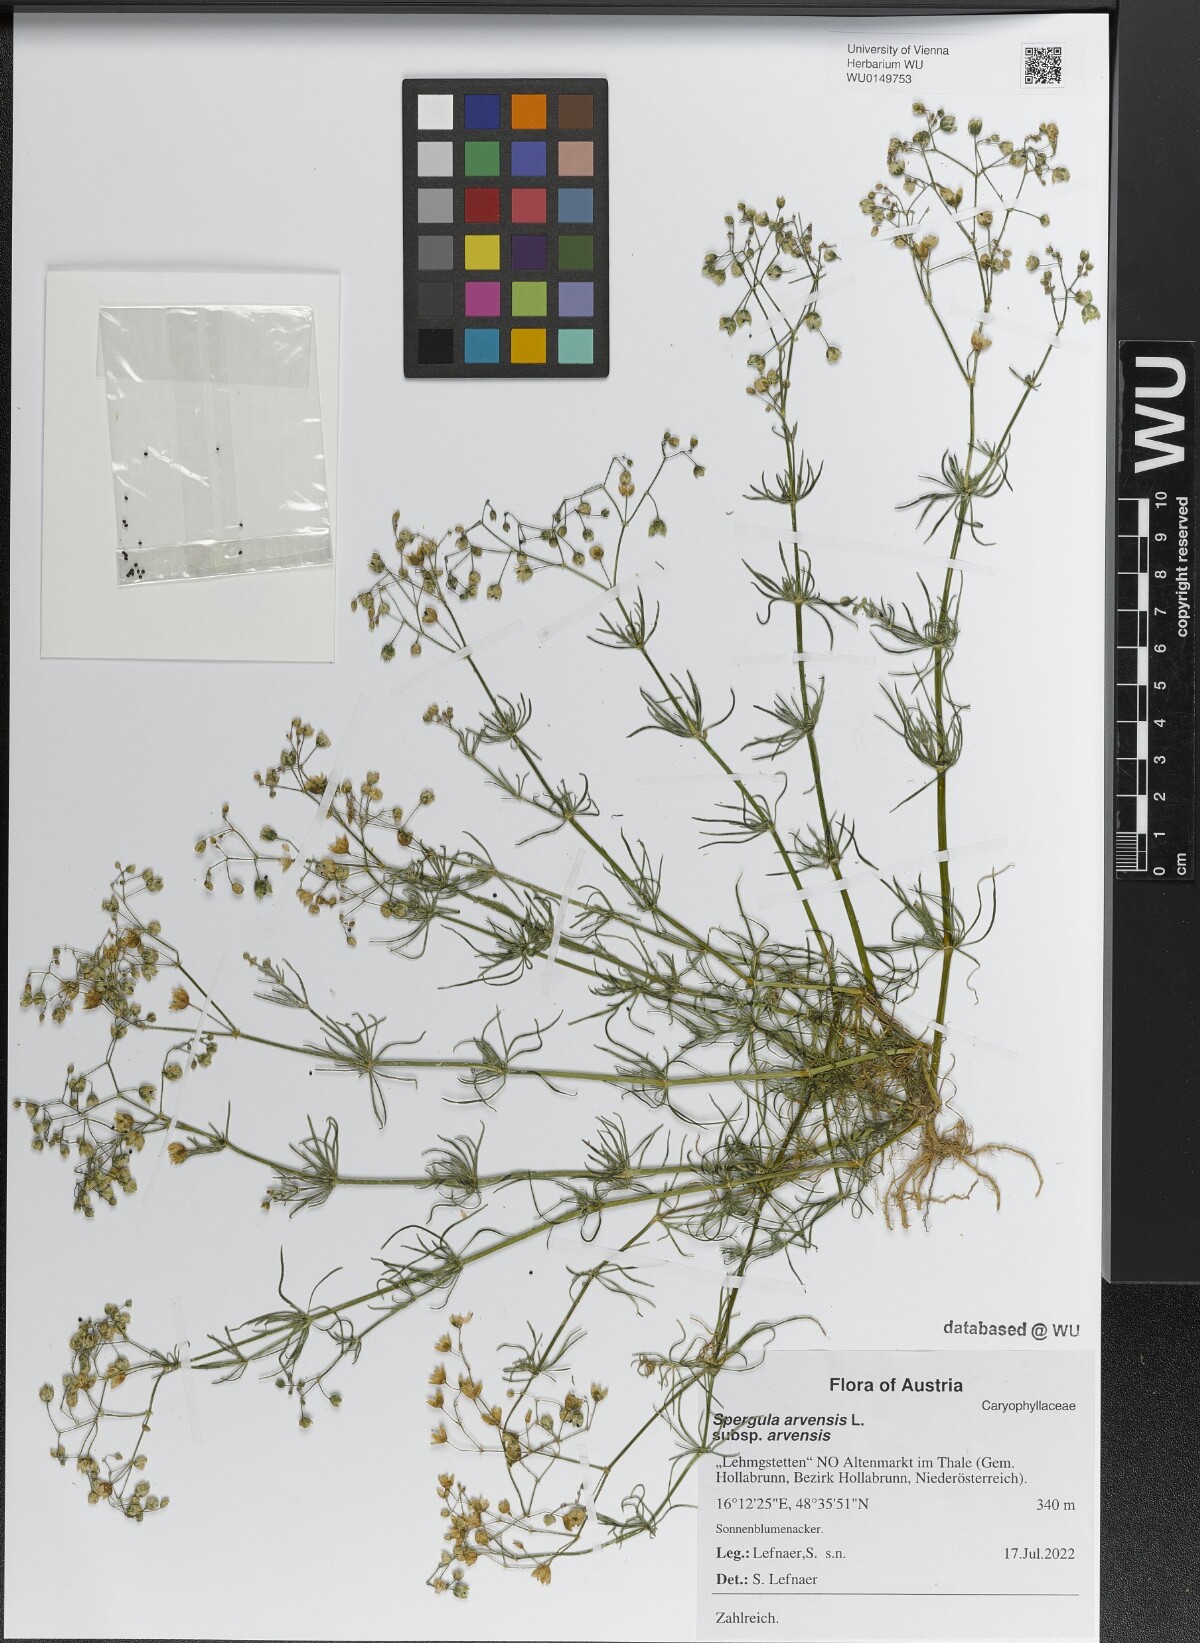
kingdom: Plantae
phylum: Tracheophyta
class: Magnoliopsida
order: Caryophyllales
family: Caryophyllaceae
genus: Spergula
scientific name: Spergula arvensis
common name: Corn spurrey
